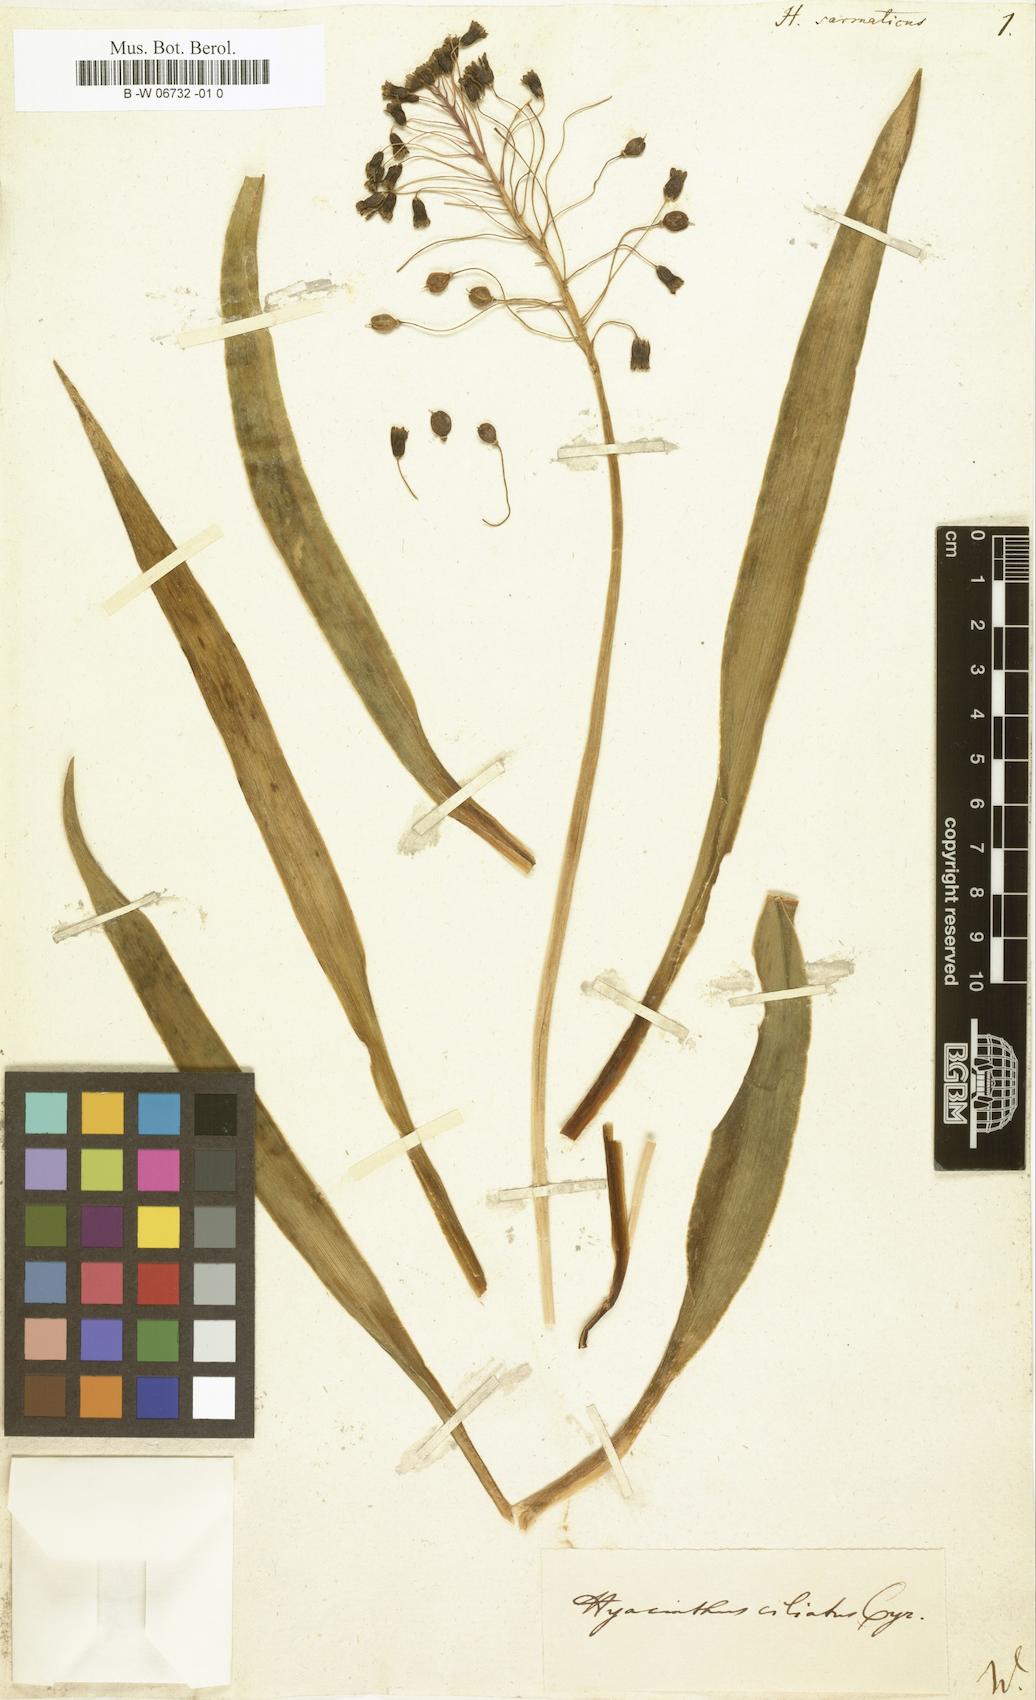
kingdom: Plantae
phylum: Tracheophyta
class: Liliopsida
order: Asparagales
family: Asparagaceae
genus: Bellevalia
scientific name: Bellevalia
